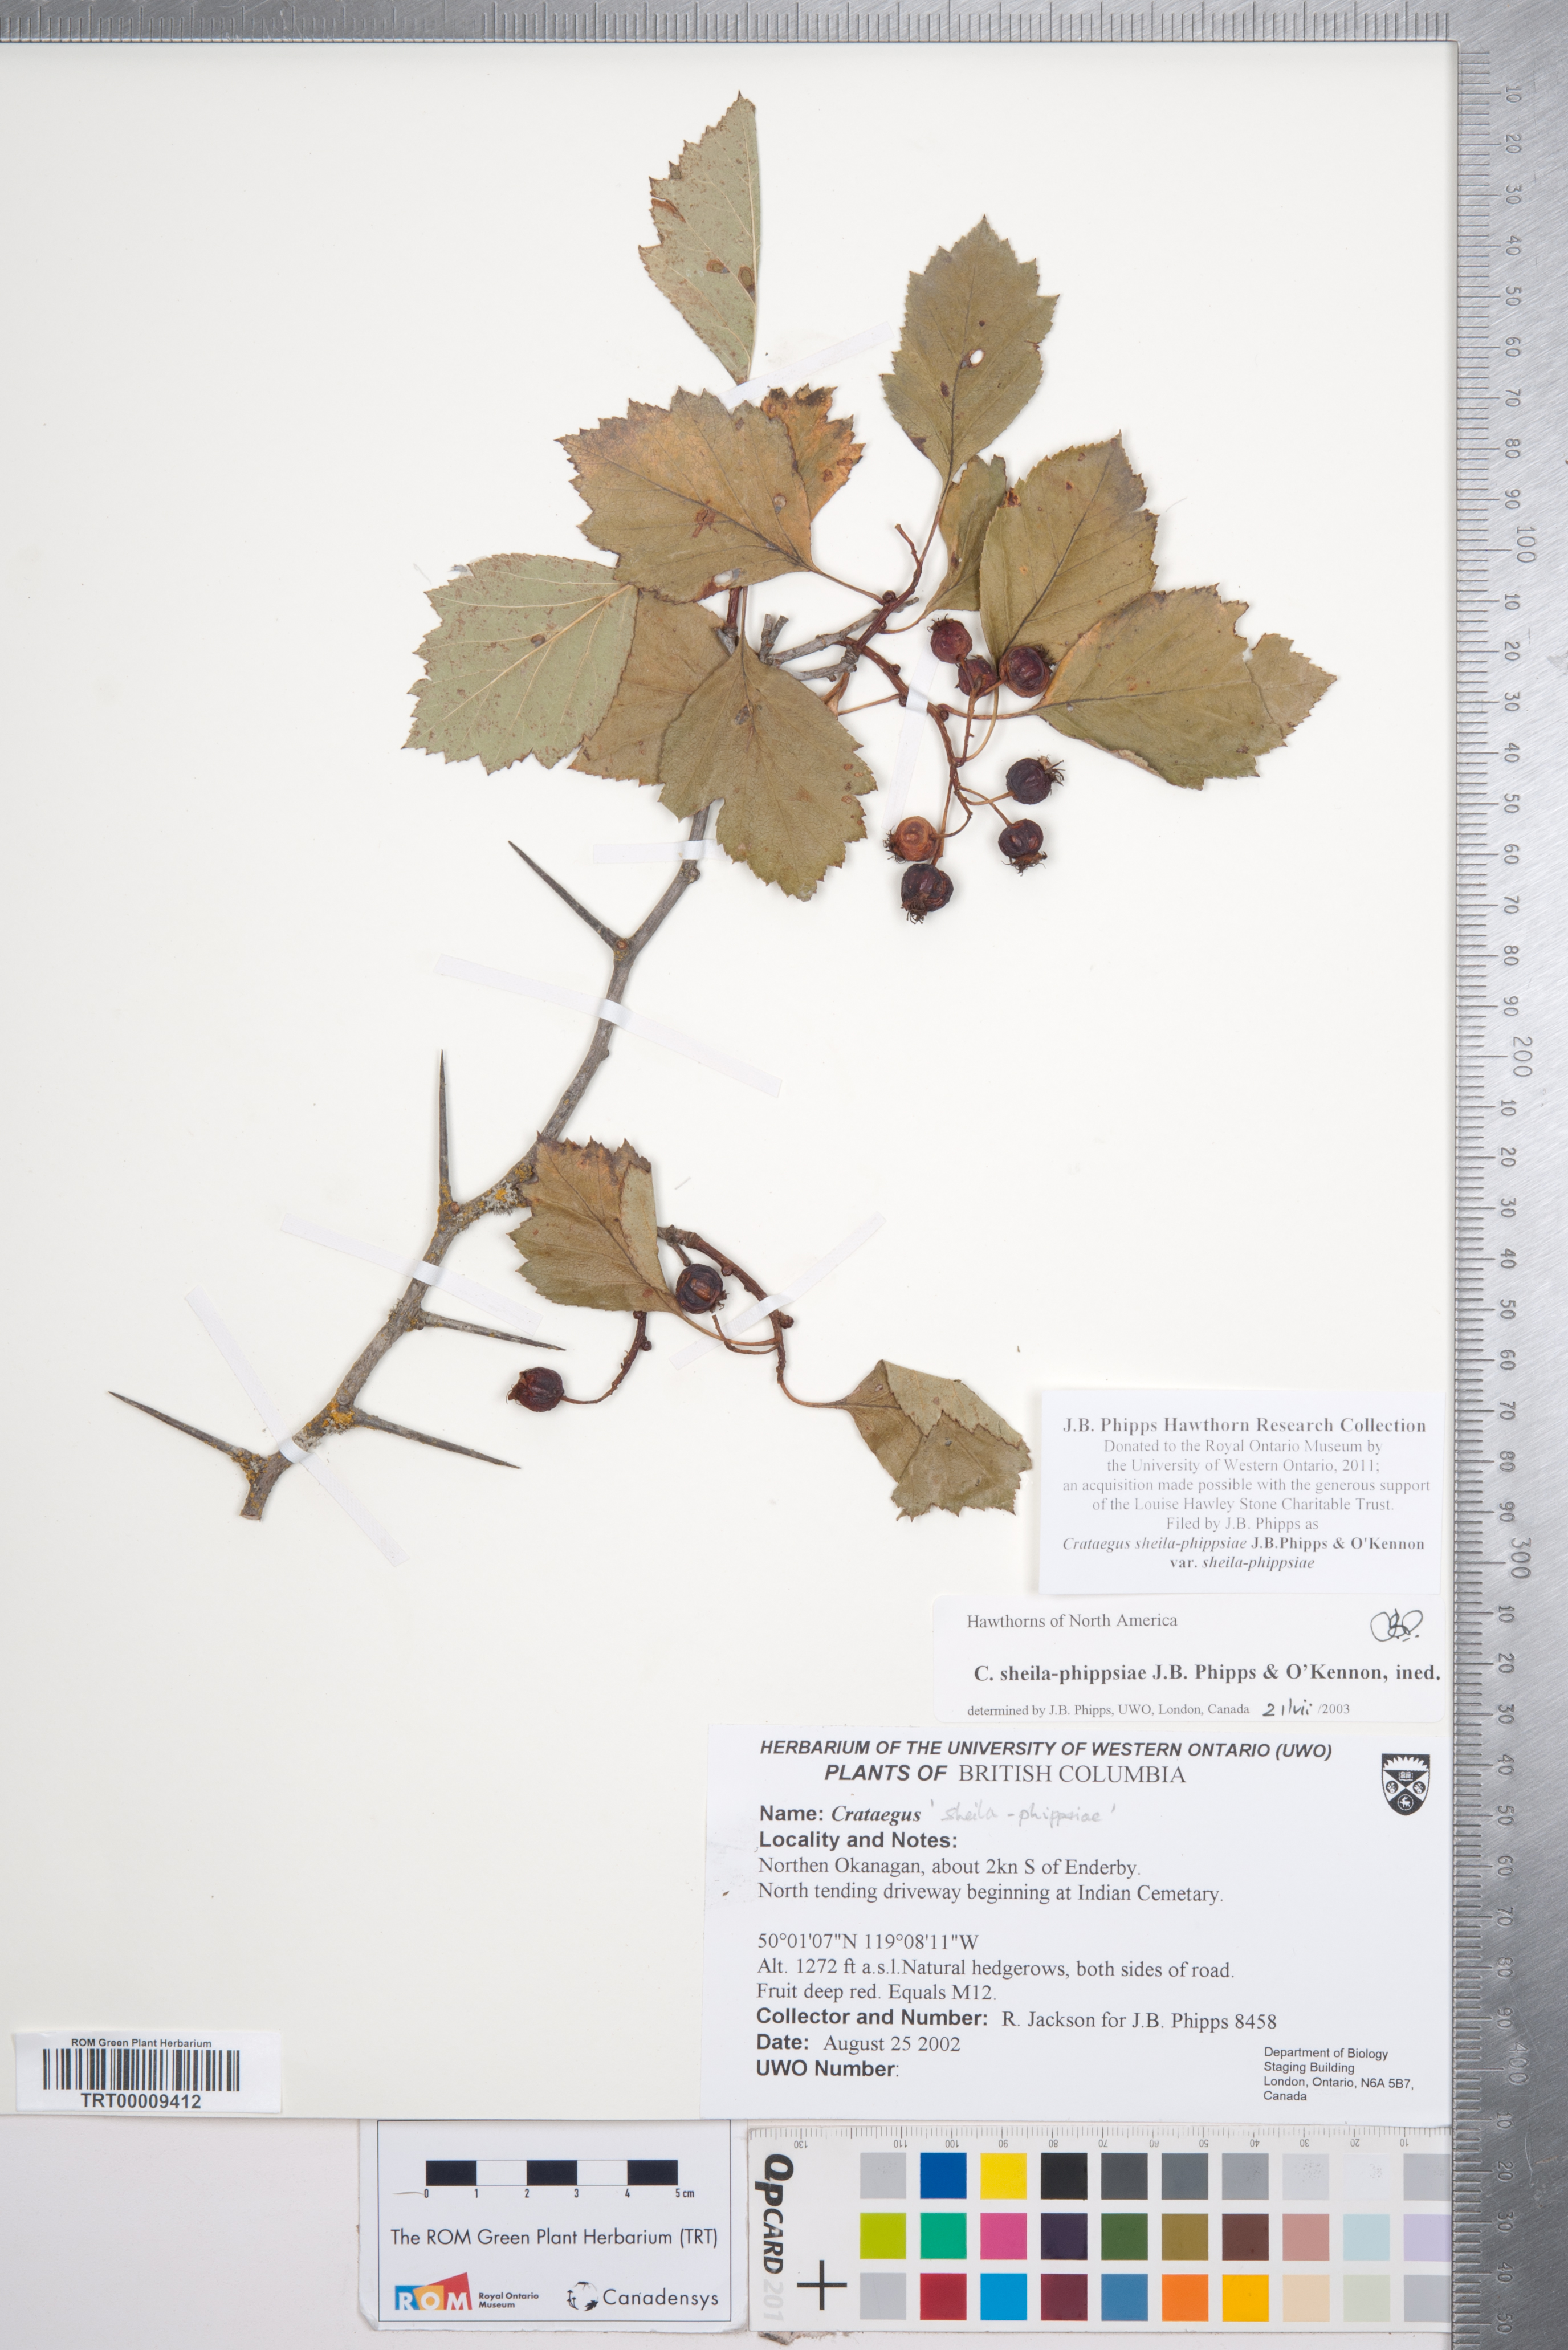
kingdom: Plantae
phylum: Tracheophyta
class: Magnoliopsida
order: Rosales
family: Rosaceae
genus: Crataegus
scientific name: Crataegus sheila-phippsiae
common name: Sheila phipps' hawthorn
